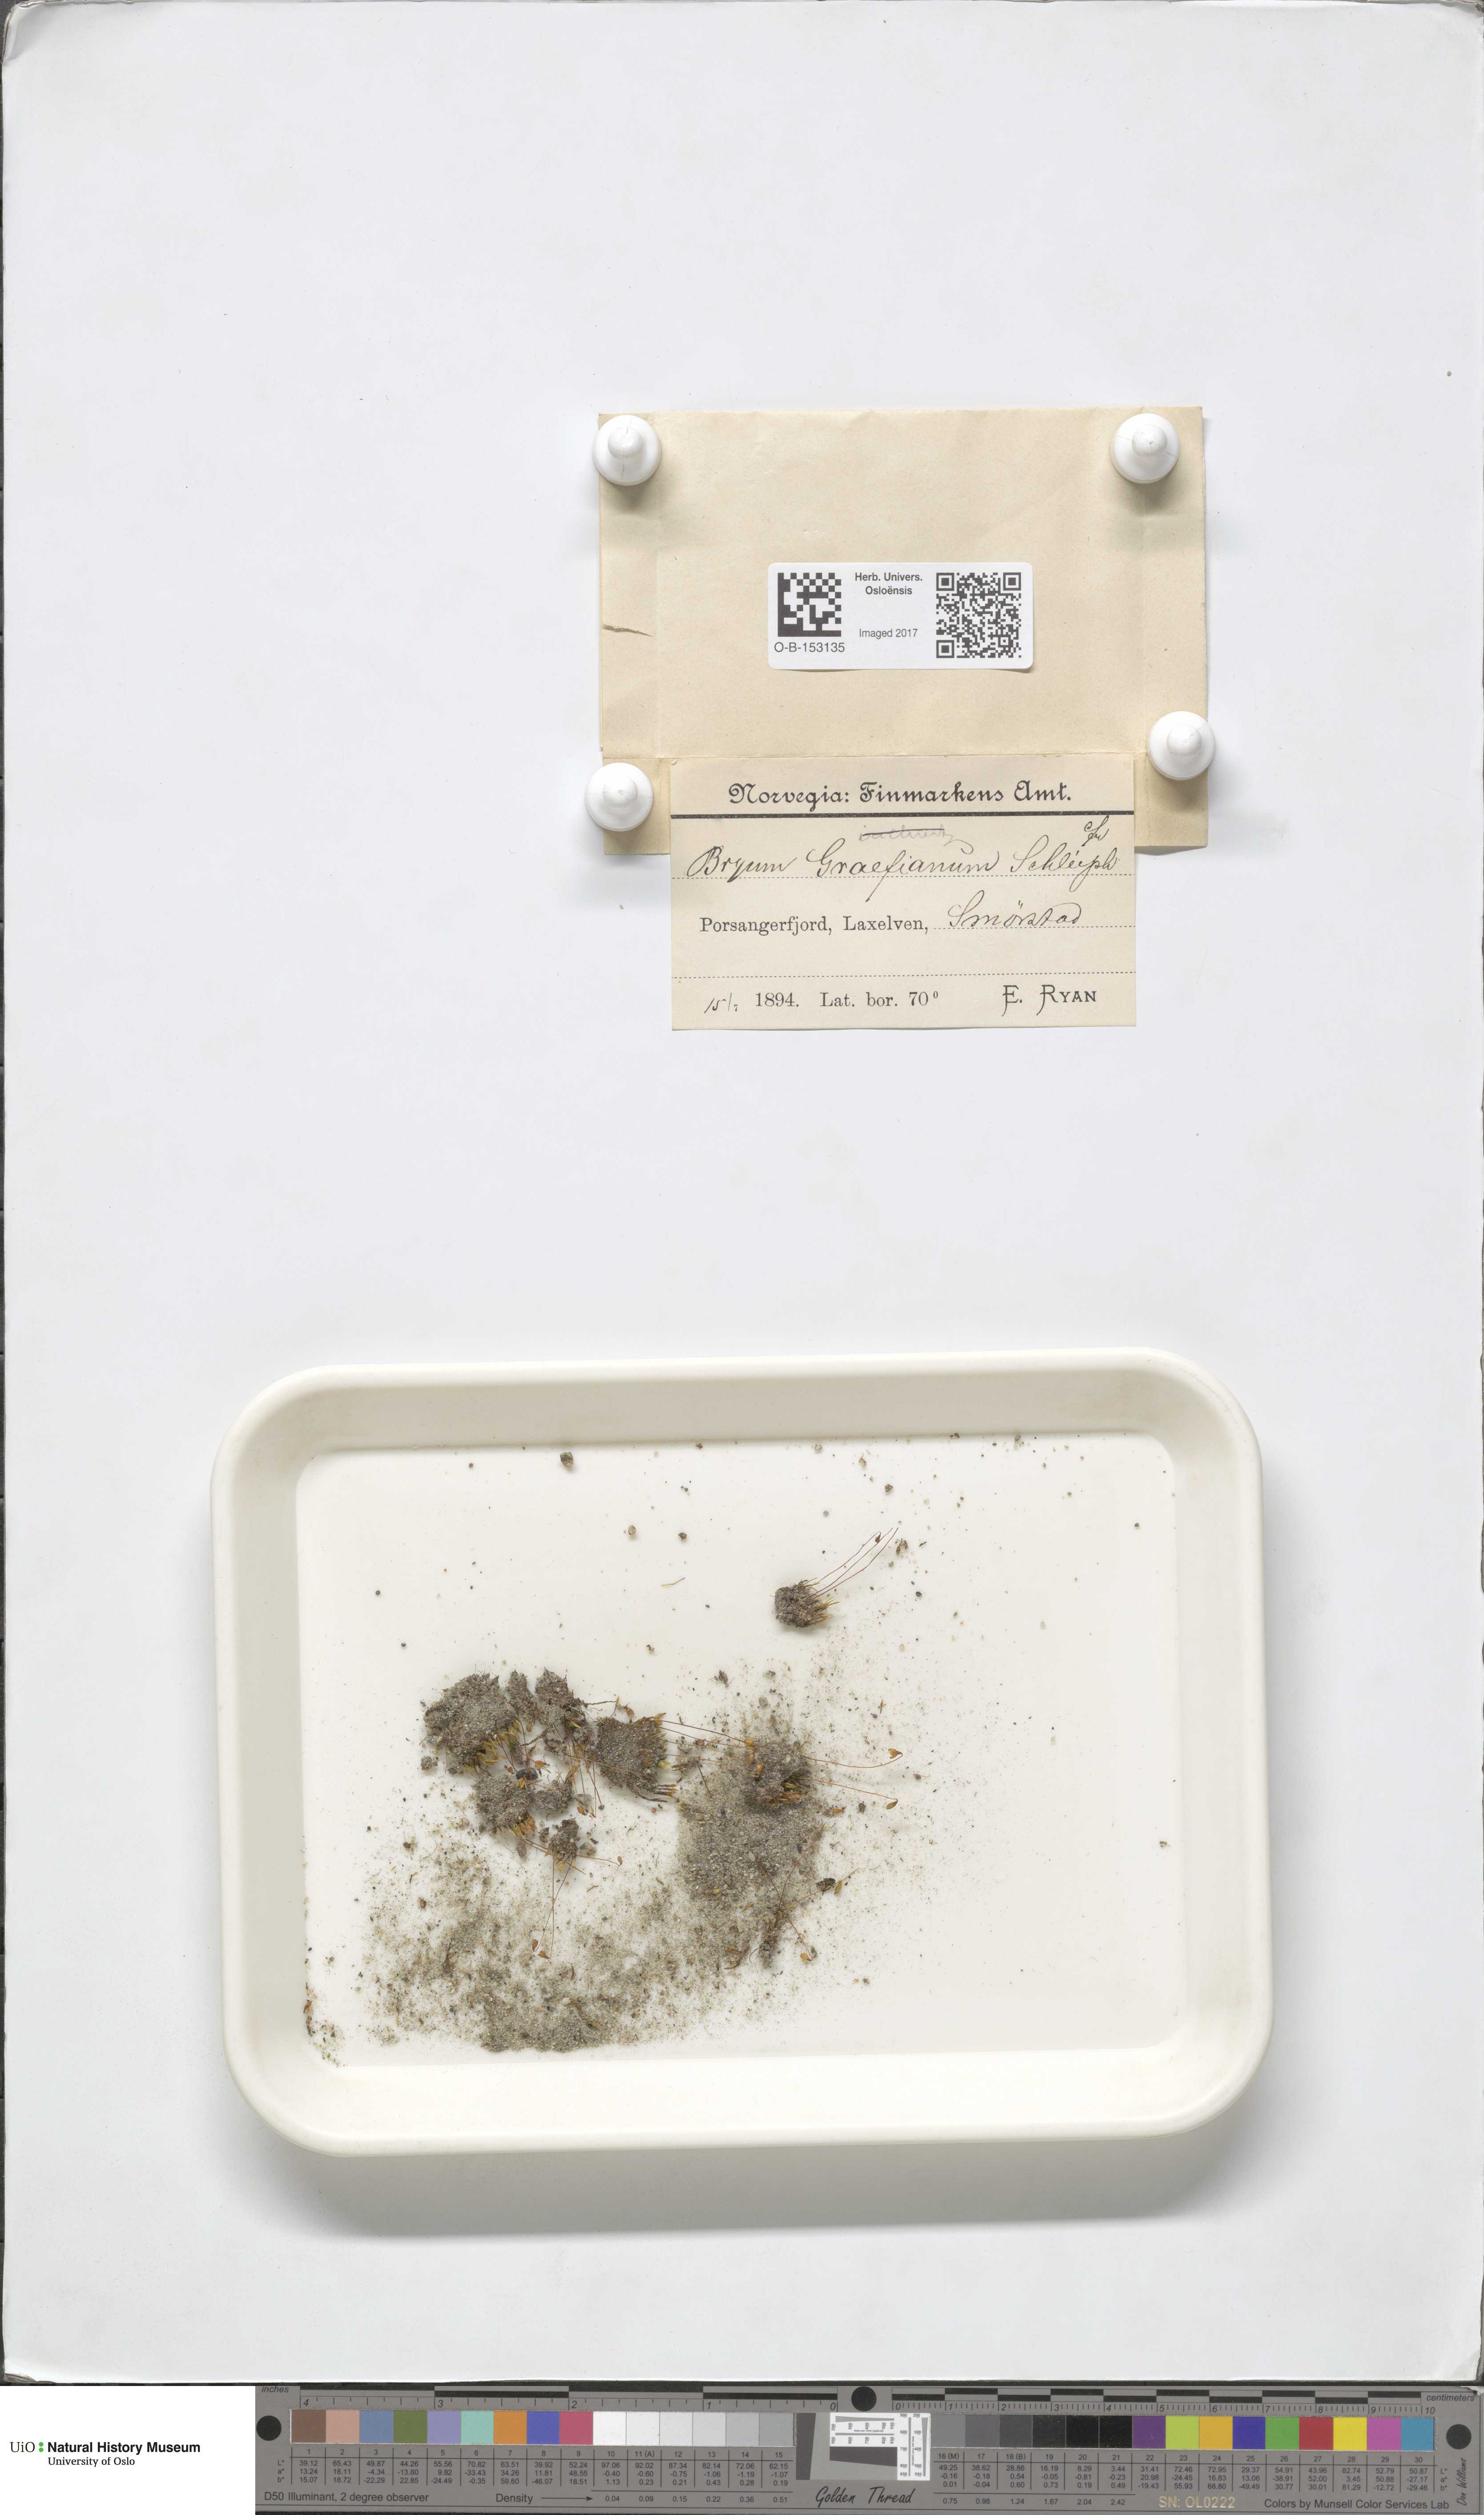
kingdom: Plantae
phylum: Bryophyta
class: Bryopsida
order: Bryales
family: Bryaceae
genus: Ptychostomum
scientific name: Ptychostomum inclinatum
